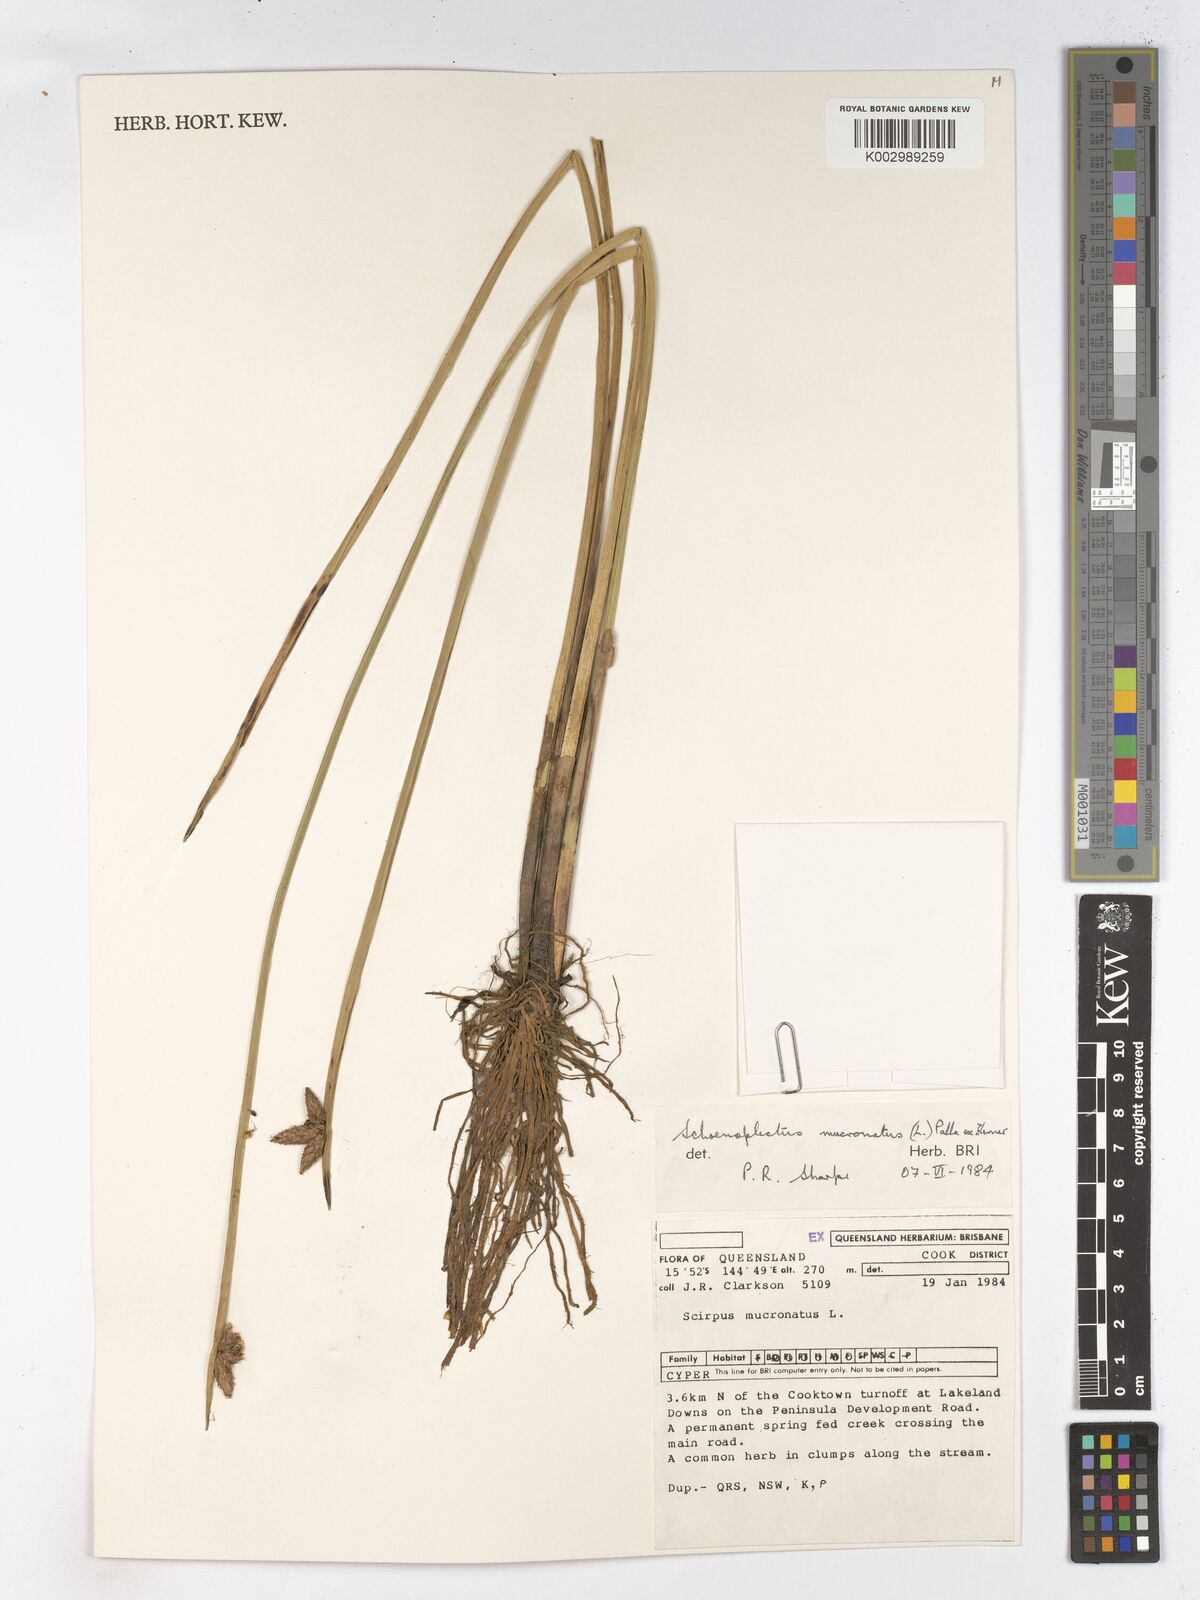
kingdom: Plantae
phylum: Tracheophyta
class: Liliopsida
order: Poales
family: Cyperaceae
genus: Schoenoplectiella
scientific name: Schoenoplectiella mucronata
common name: Bog bulrush
